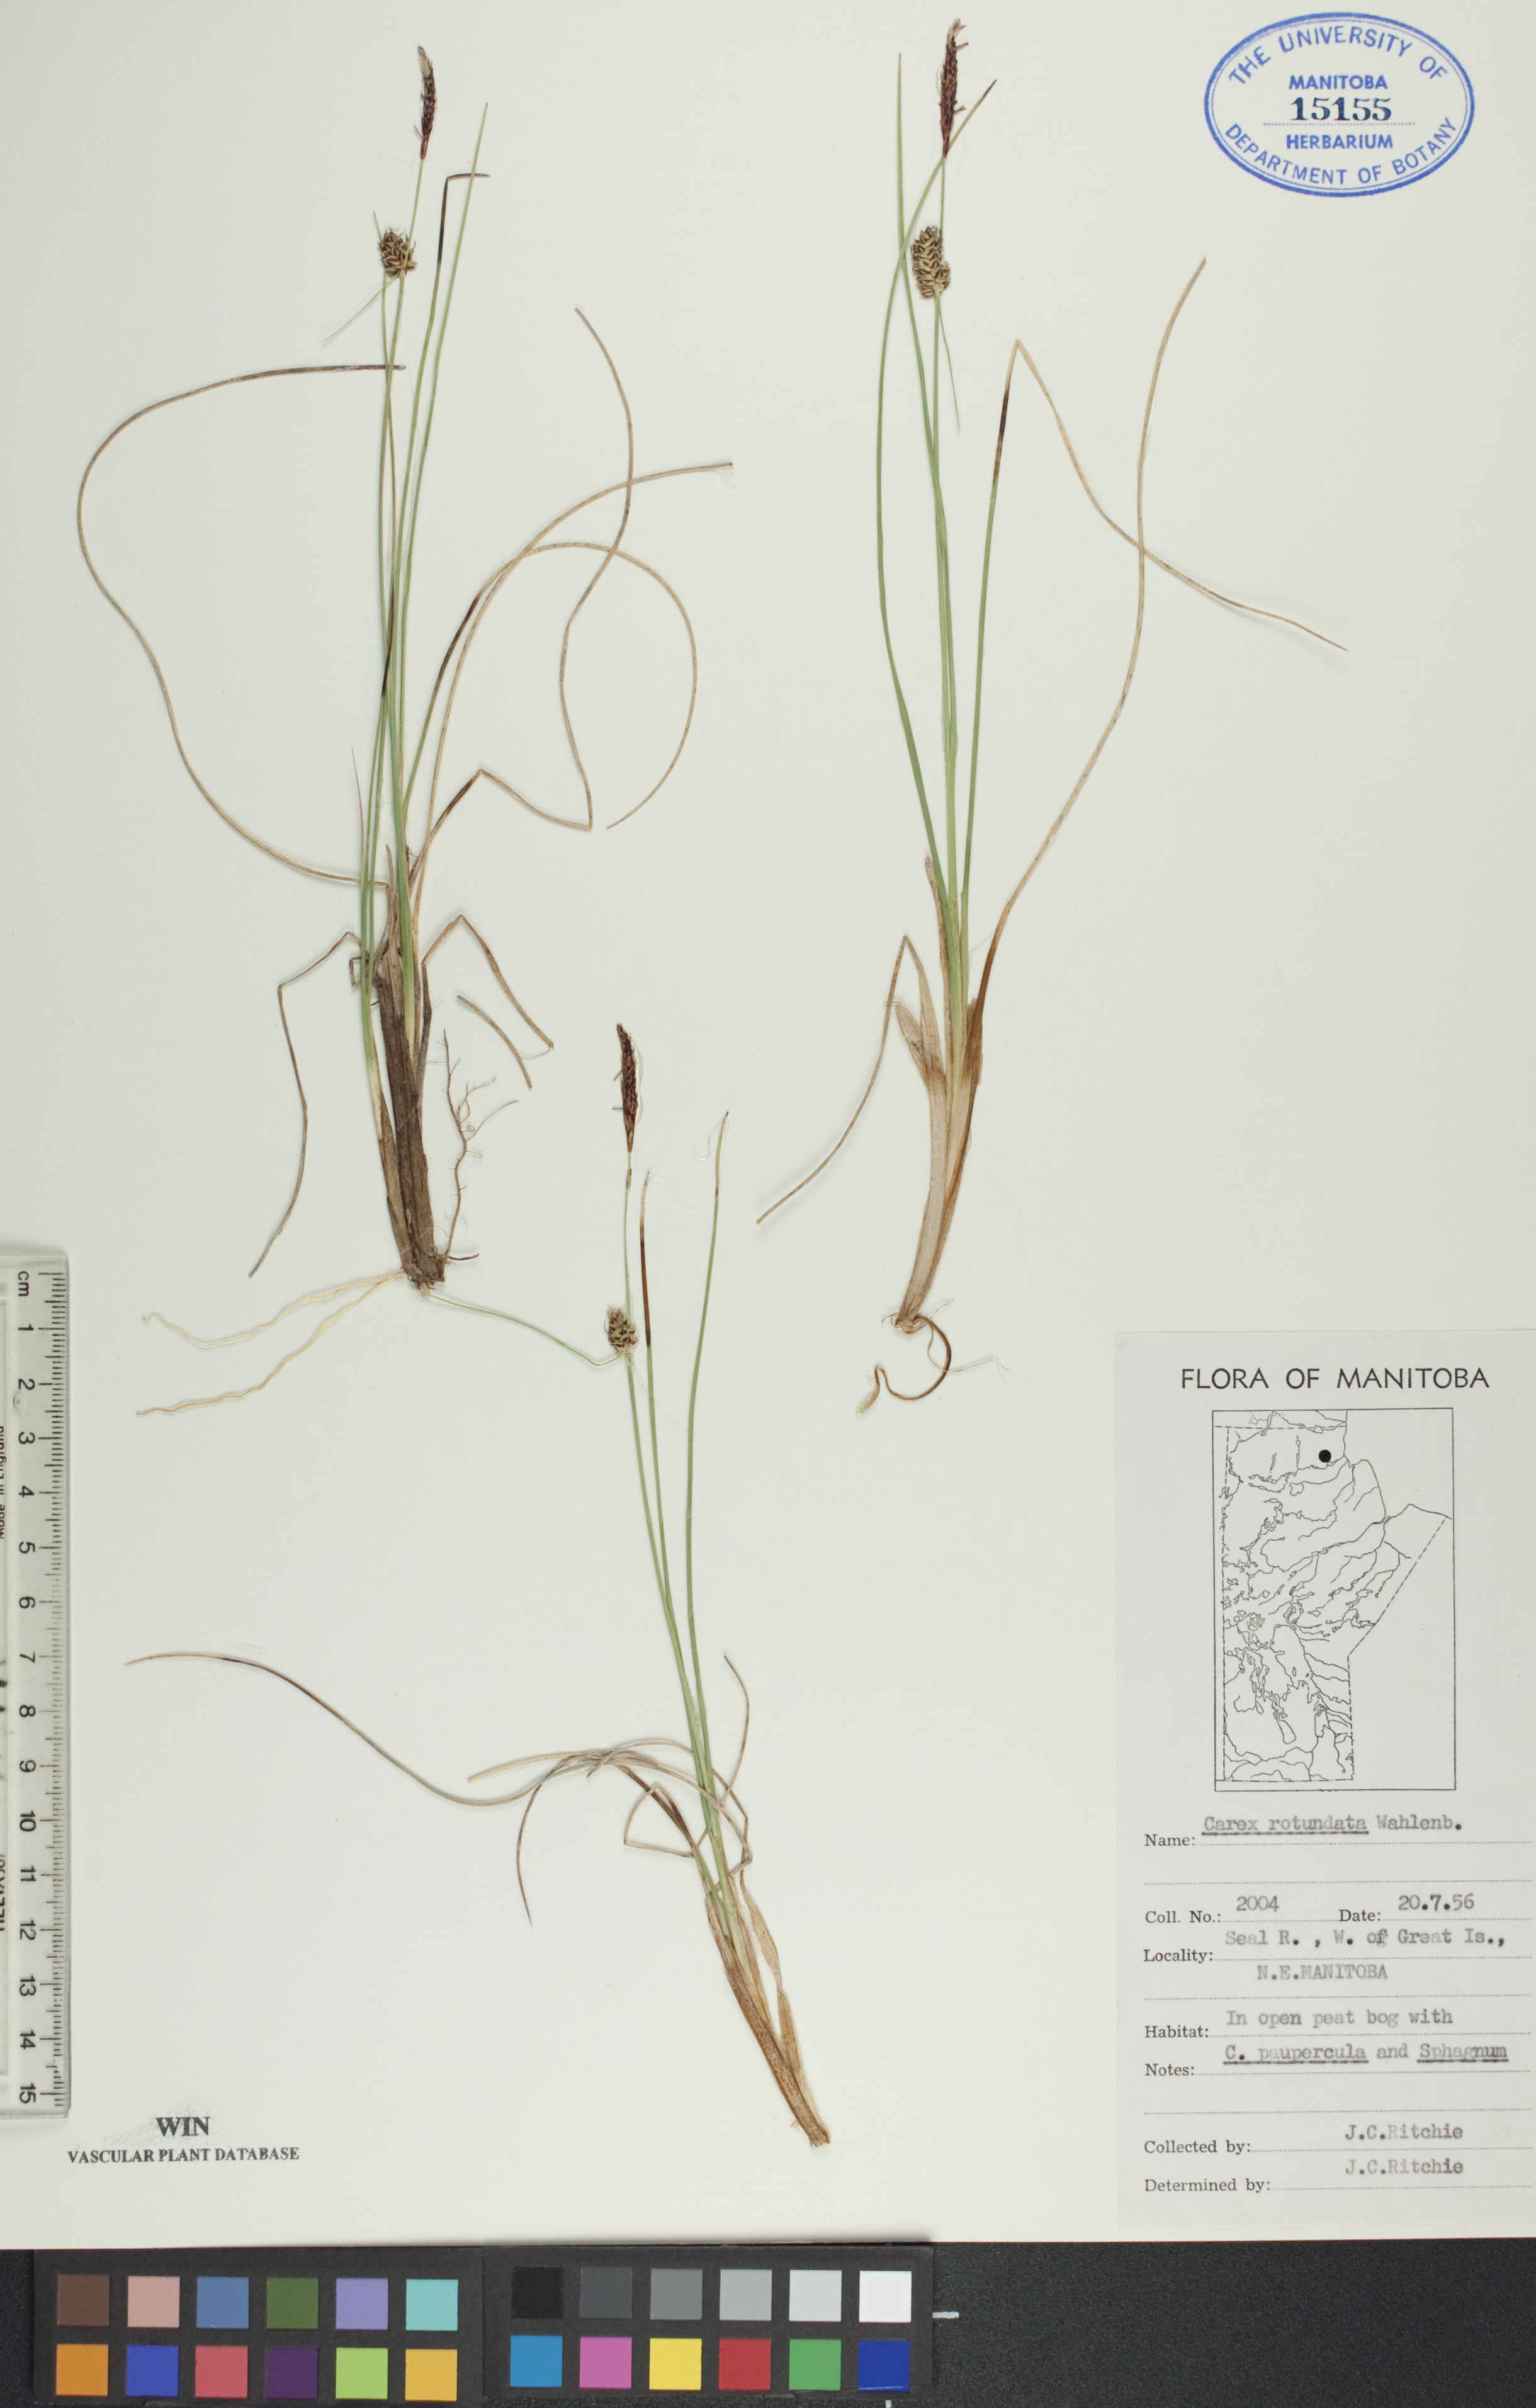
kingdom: Plantae
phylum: Tracheophyta
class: Liliopsida
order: Poales
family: Cyperaceae
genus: Carex
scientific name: Carex rotundata
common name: Round-fruited sedge
